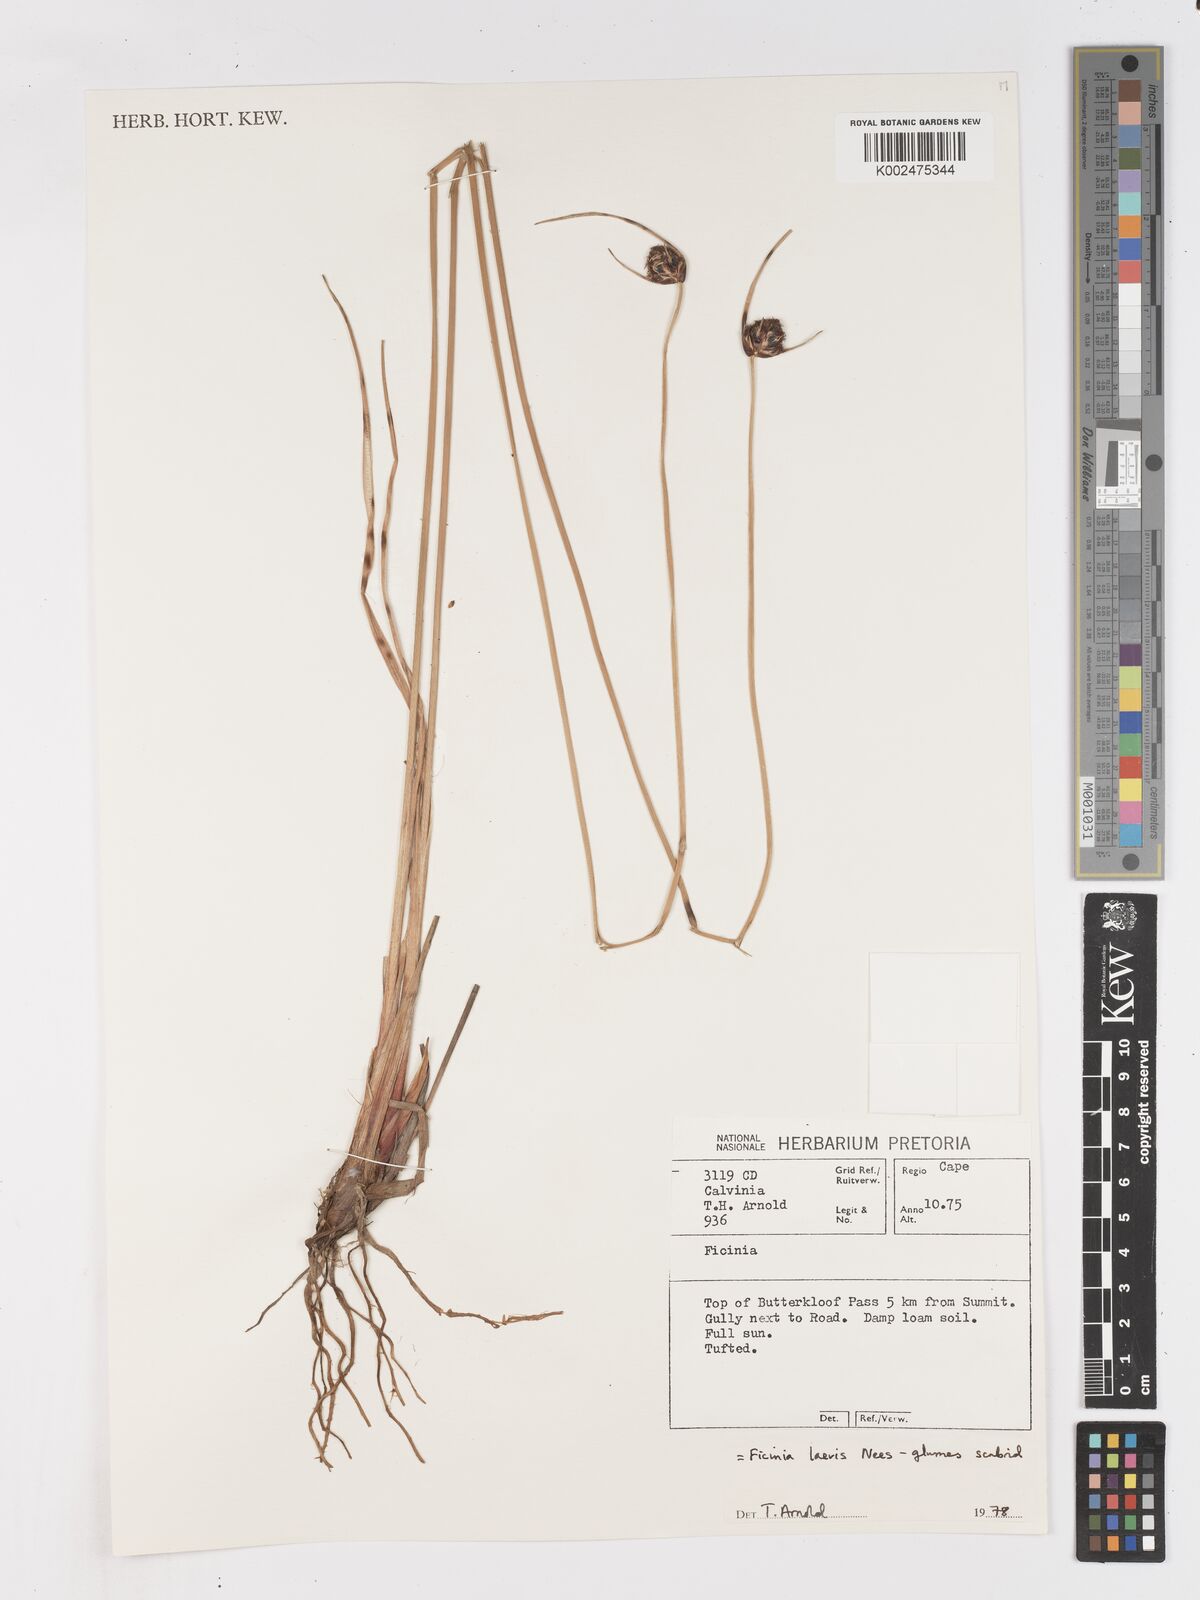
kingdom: Plantae
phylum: Tracheophyta
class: Liliopsida
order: Poales
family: Cyperaceae
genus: Ficinia
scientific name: Ficinia laevis
